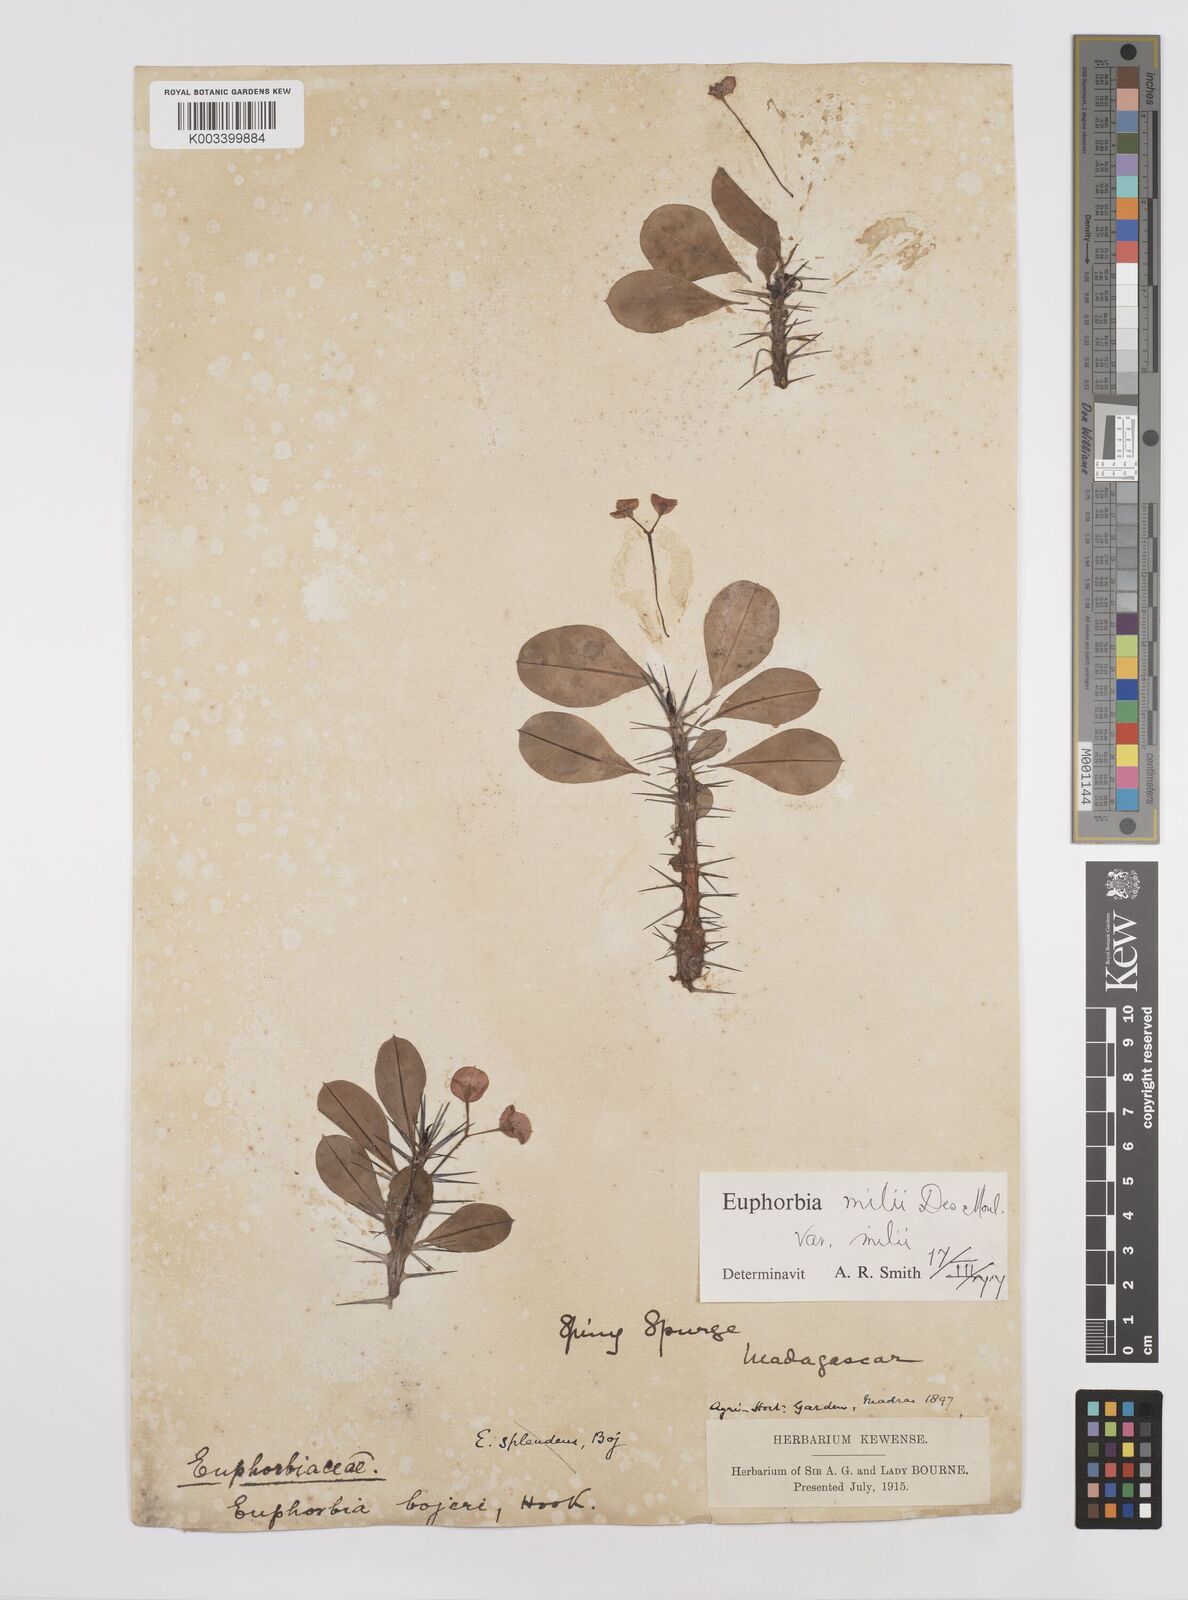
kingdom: Plantae
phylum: Tracheophyta
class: Magnoliopsida
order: Malpighiales
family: Euphorbiaceae
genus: Euphorbia
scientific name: Euphorbia milii
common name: Christplant
